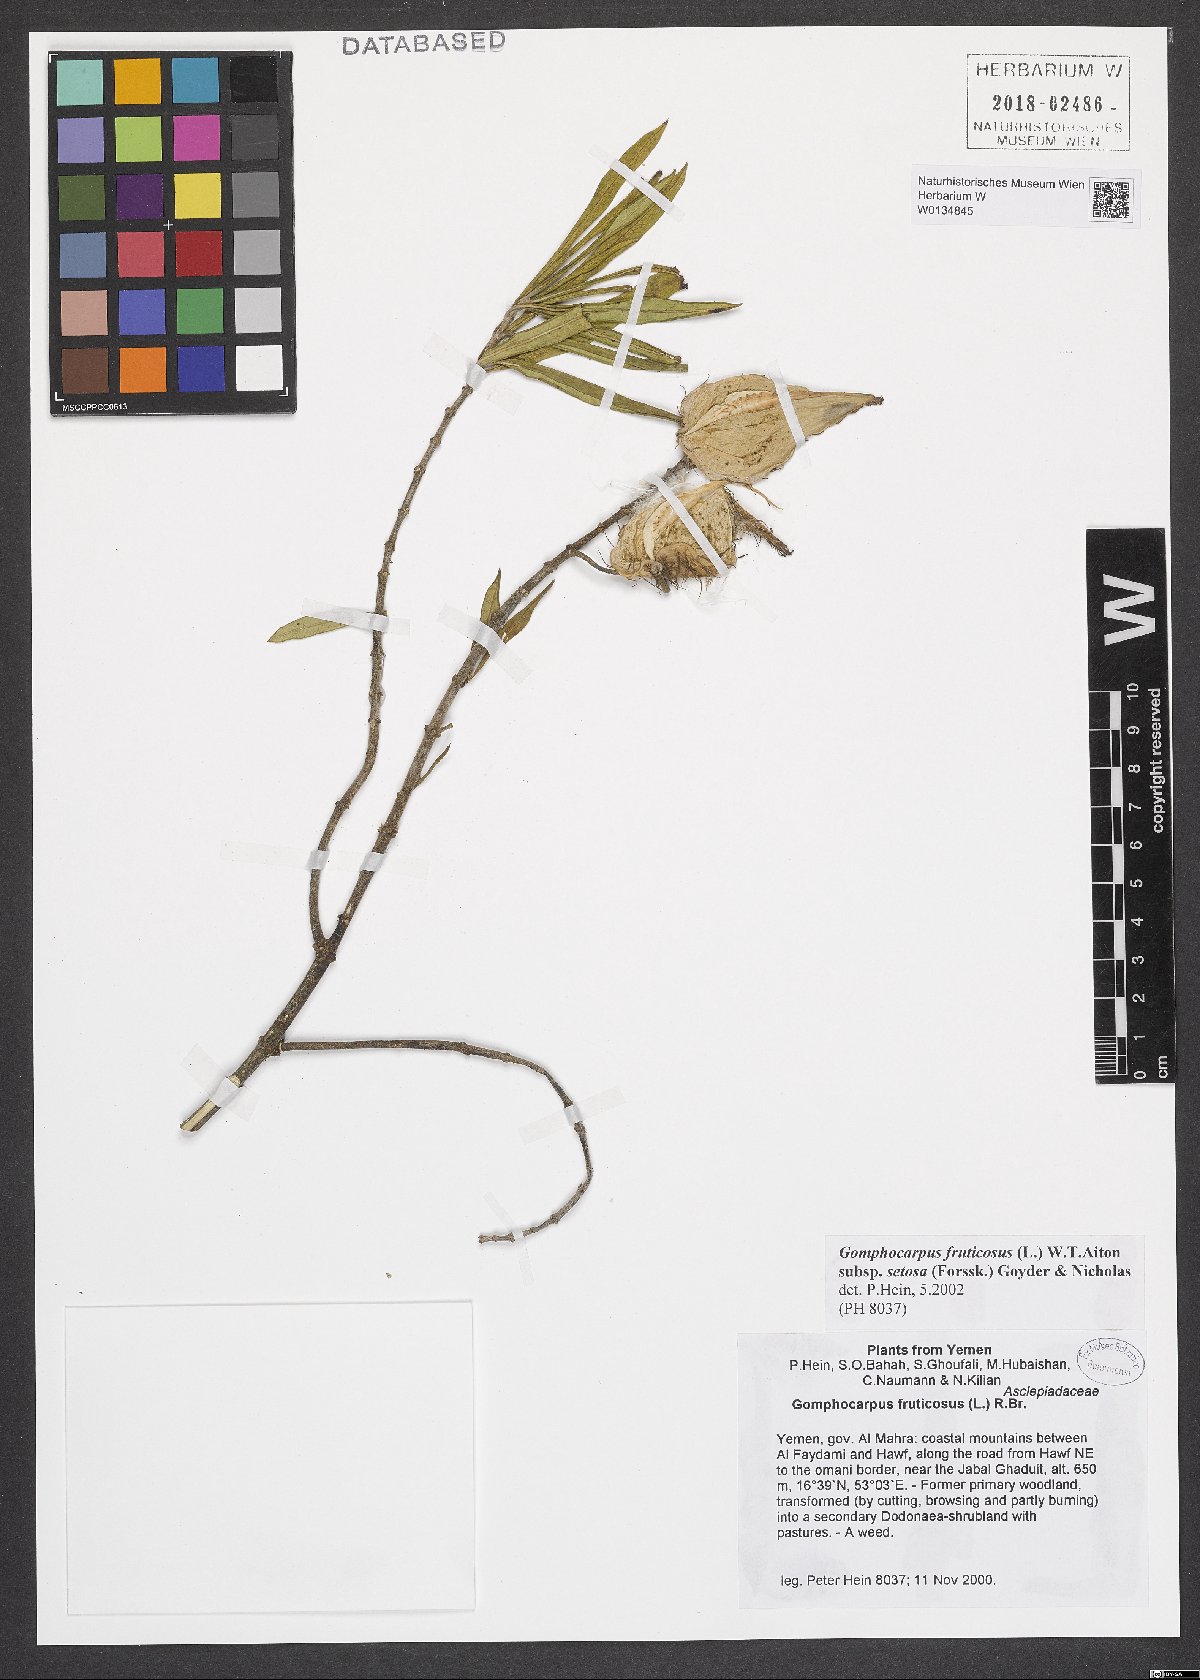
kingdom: Plantae
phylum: Tracheophyta
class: Magnoliopsida
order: Gentianales
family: Apocynaceae
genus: Gomphocarpus
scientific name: Gomphocarpus fruticosus
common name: Milkweed
